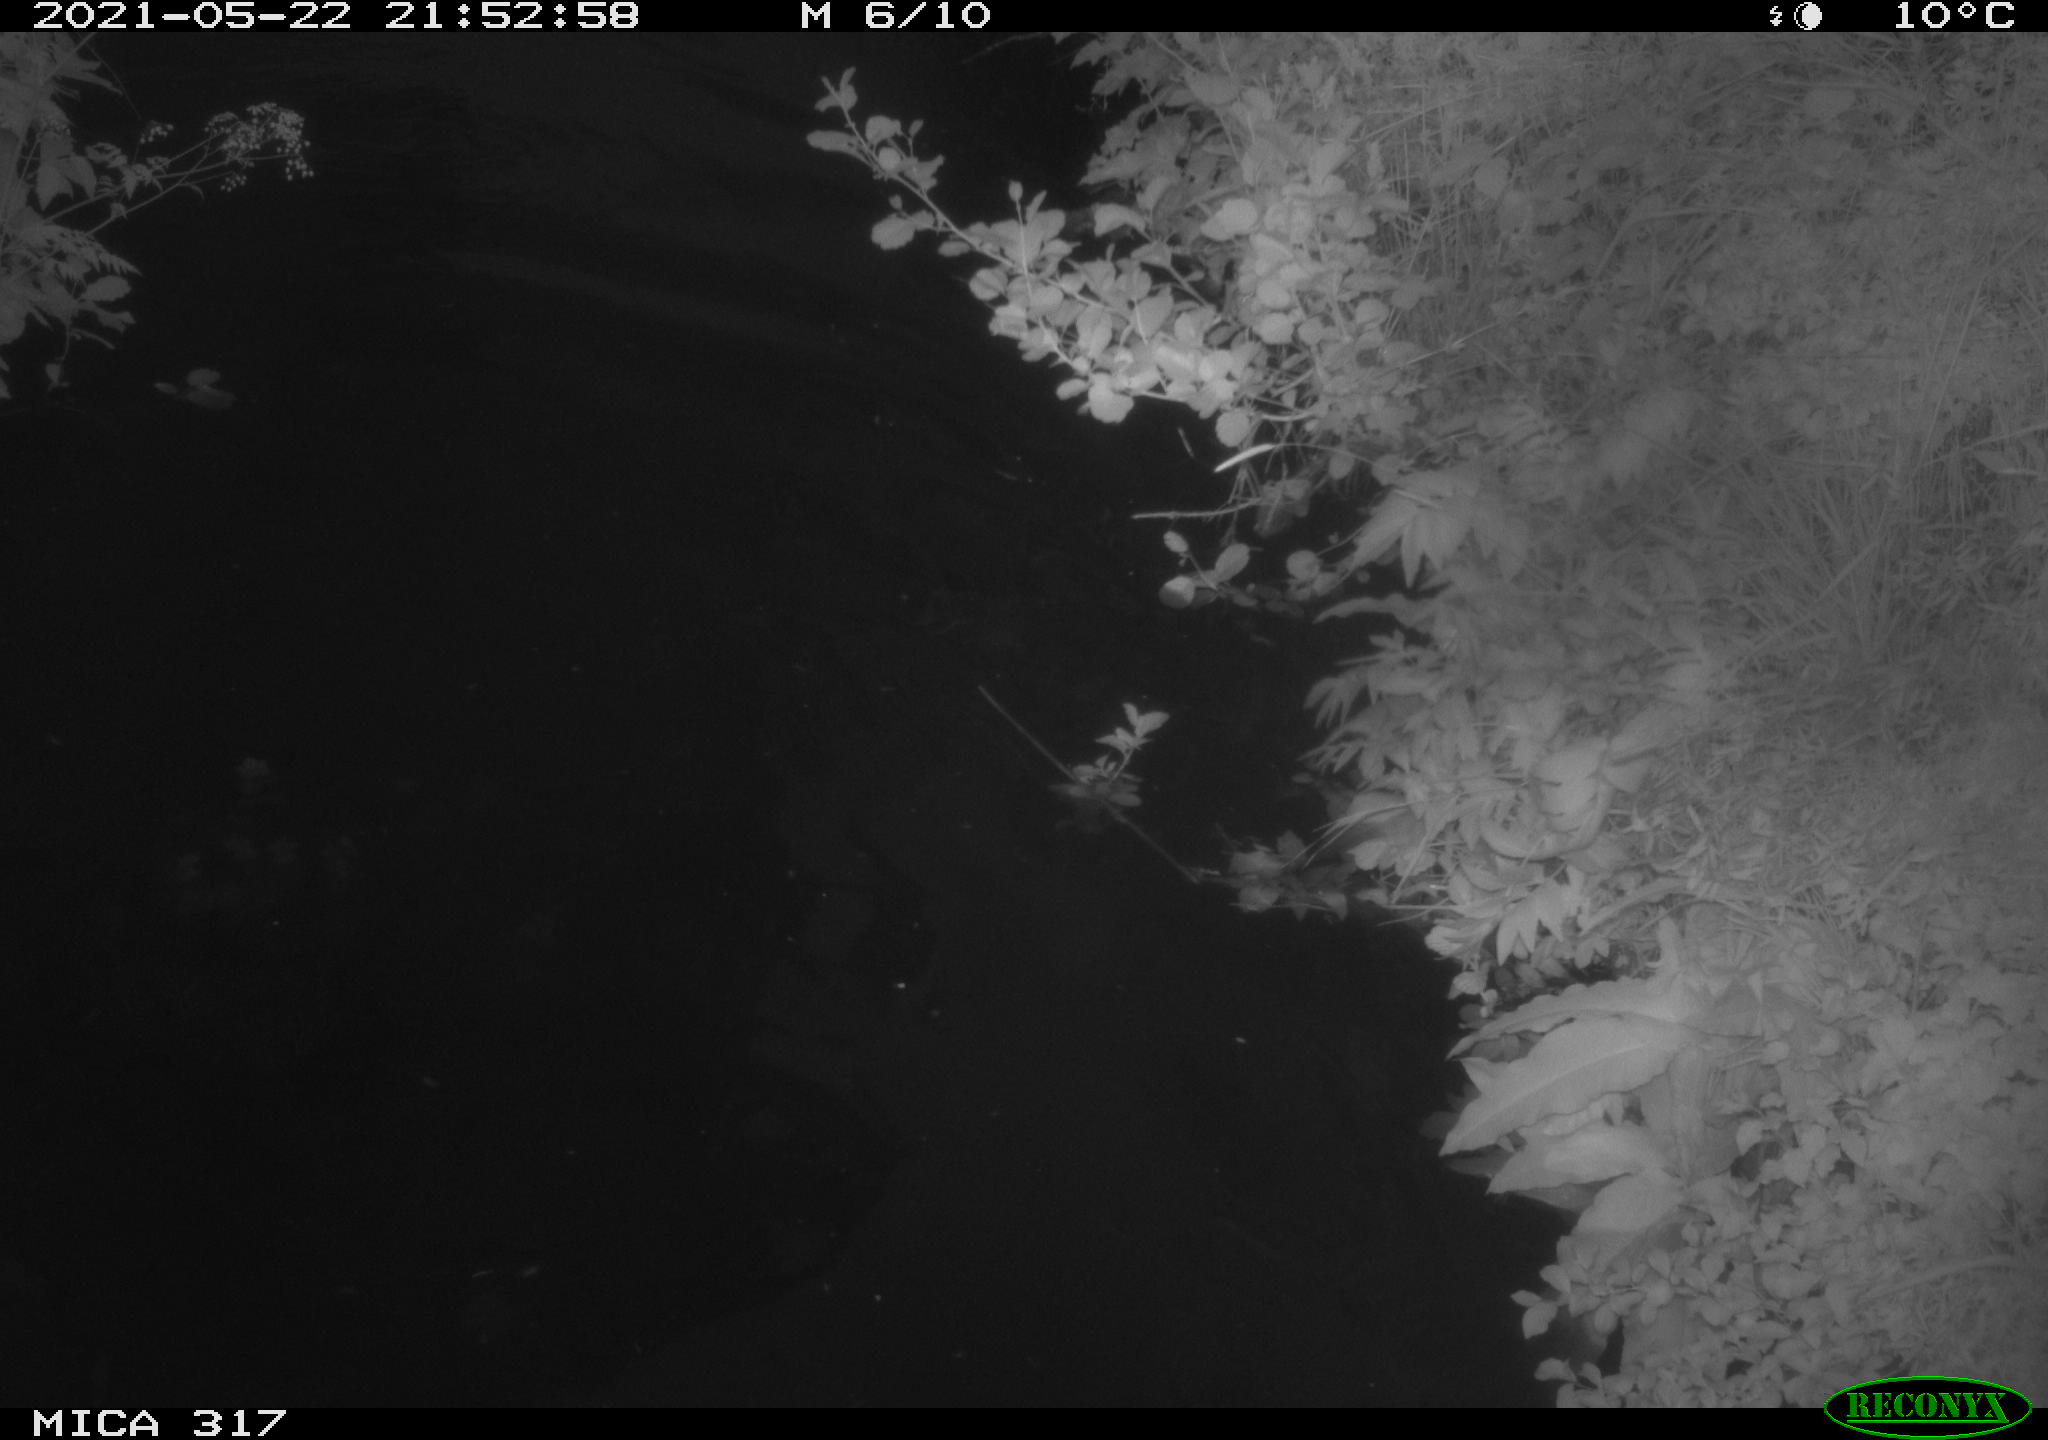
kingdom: Animalia
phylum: Chordata
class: Aves
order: Anseriformes
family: Anatidae
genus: Anas
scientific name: Anas
